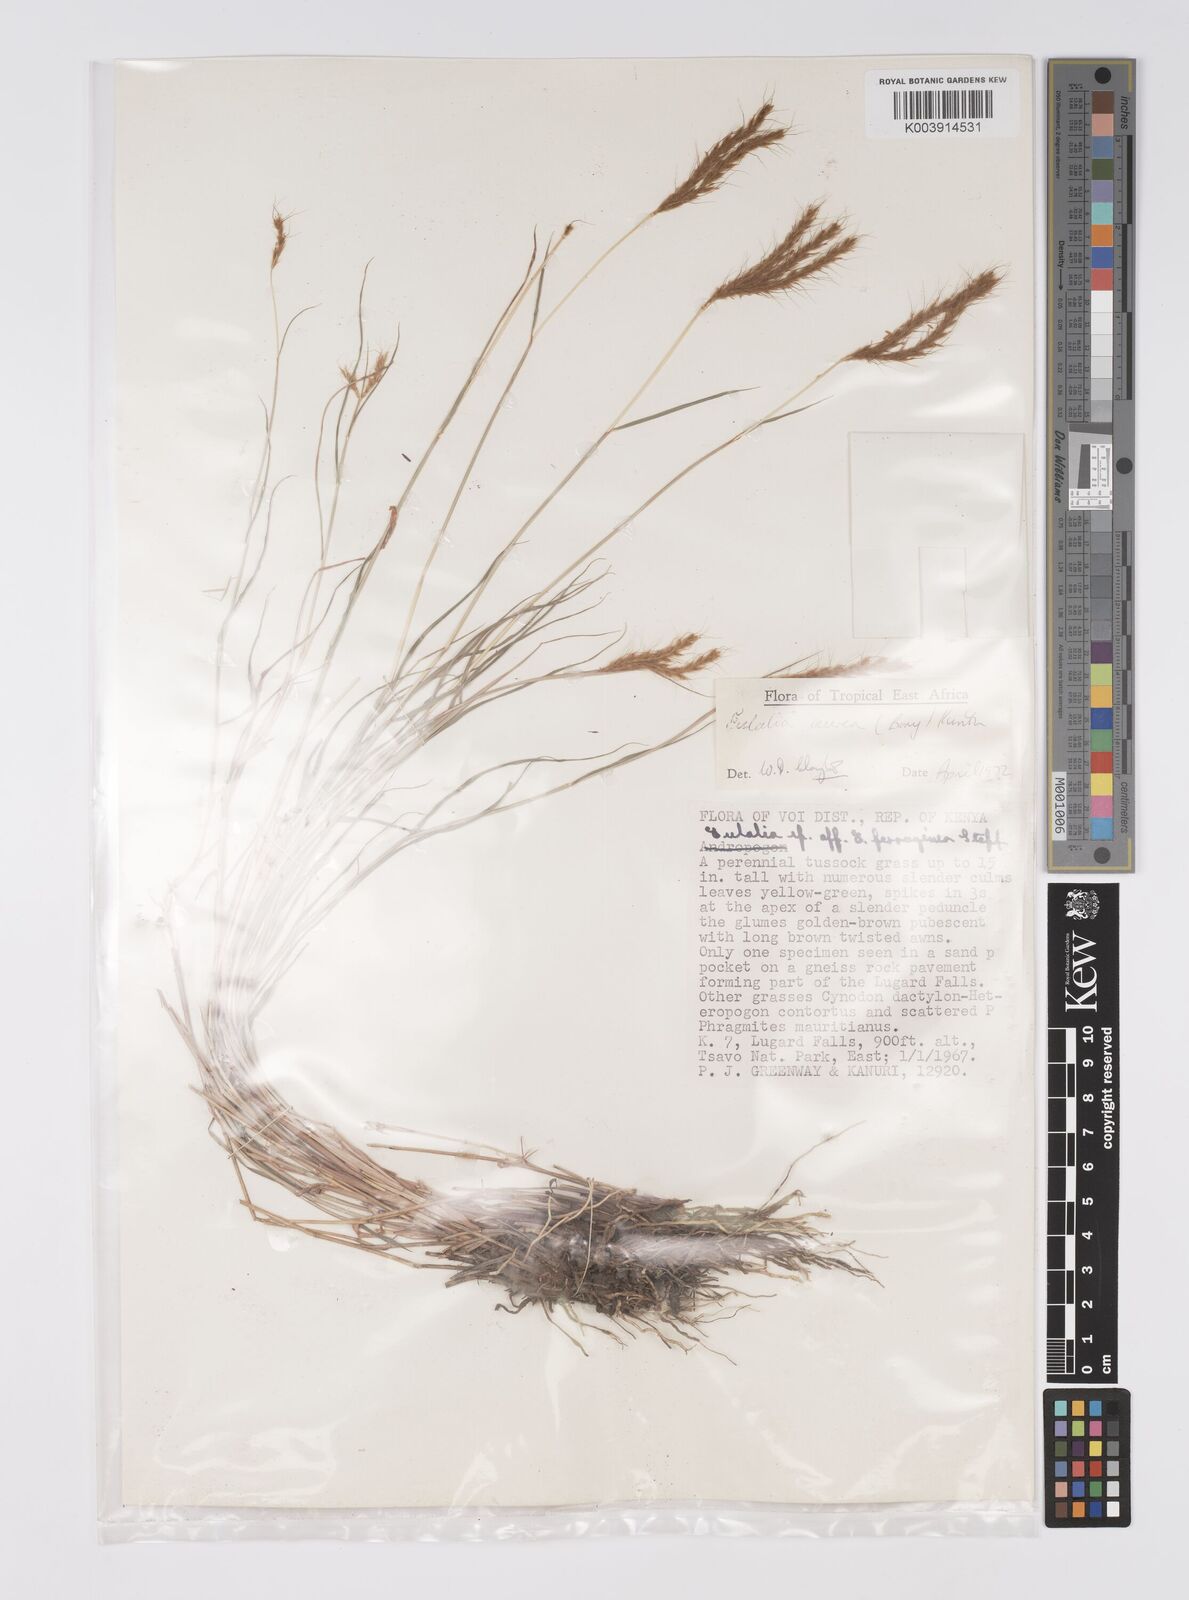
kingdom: Plantae
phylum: Tracheophyta
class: Liliopsida
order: Poales
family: Poaceae
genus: Eulalia
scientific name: Eulalia aurea
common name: Silky browntop
